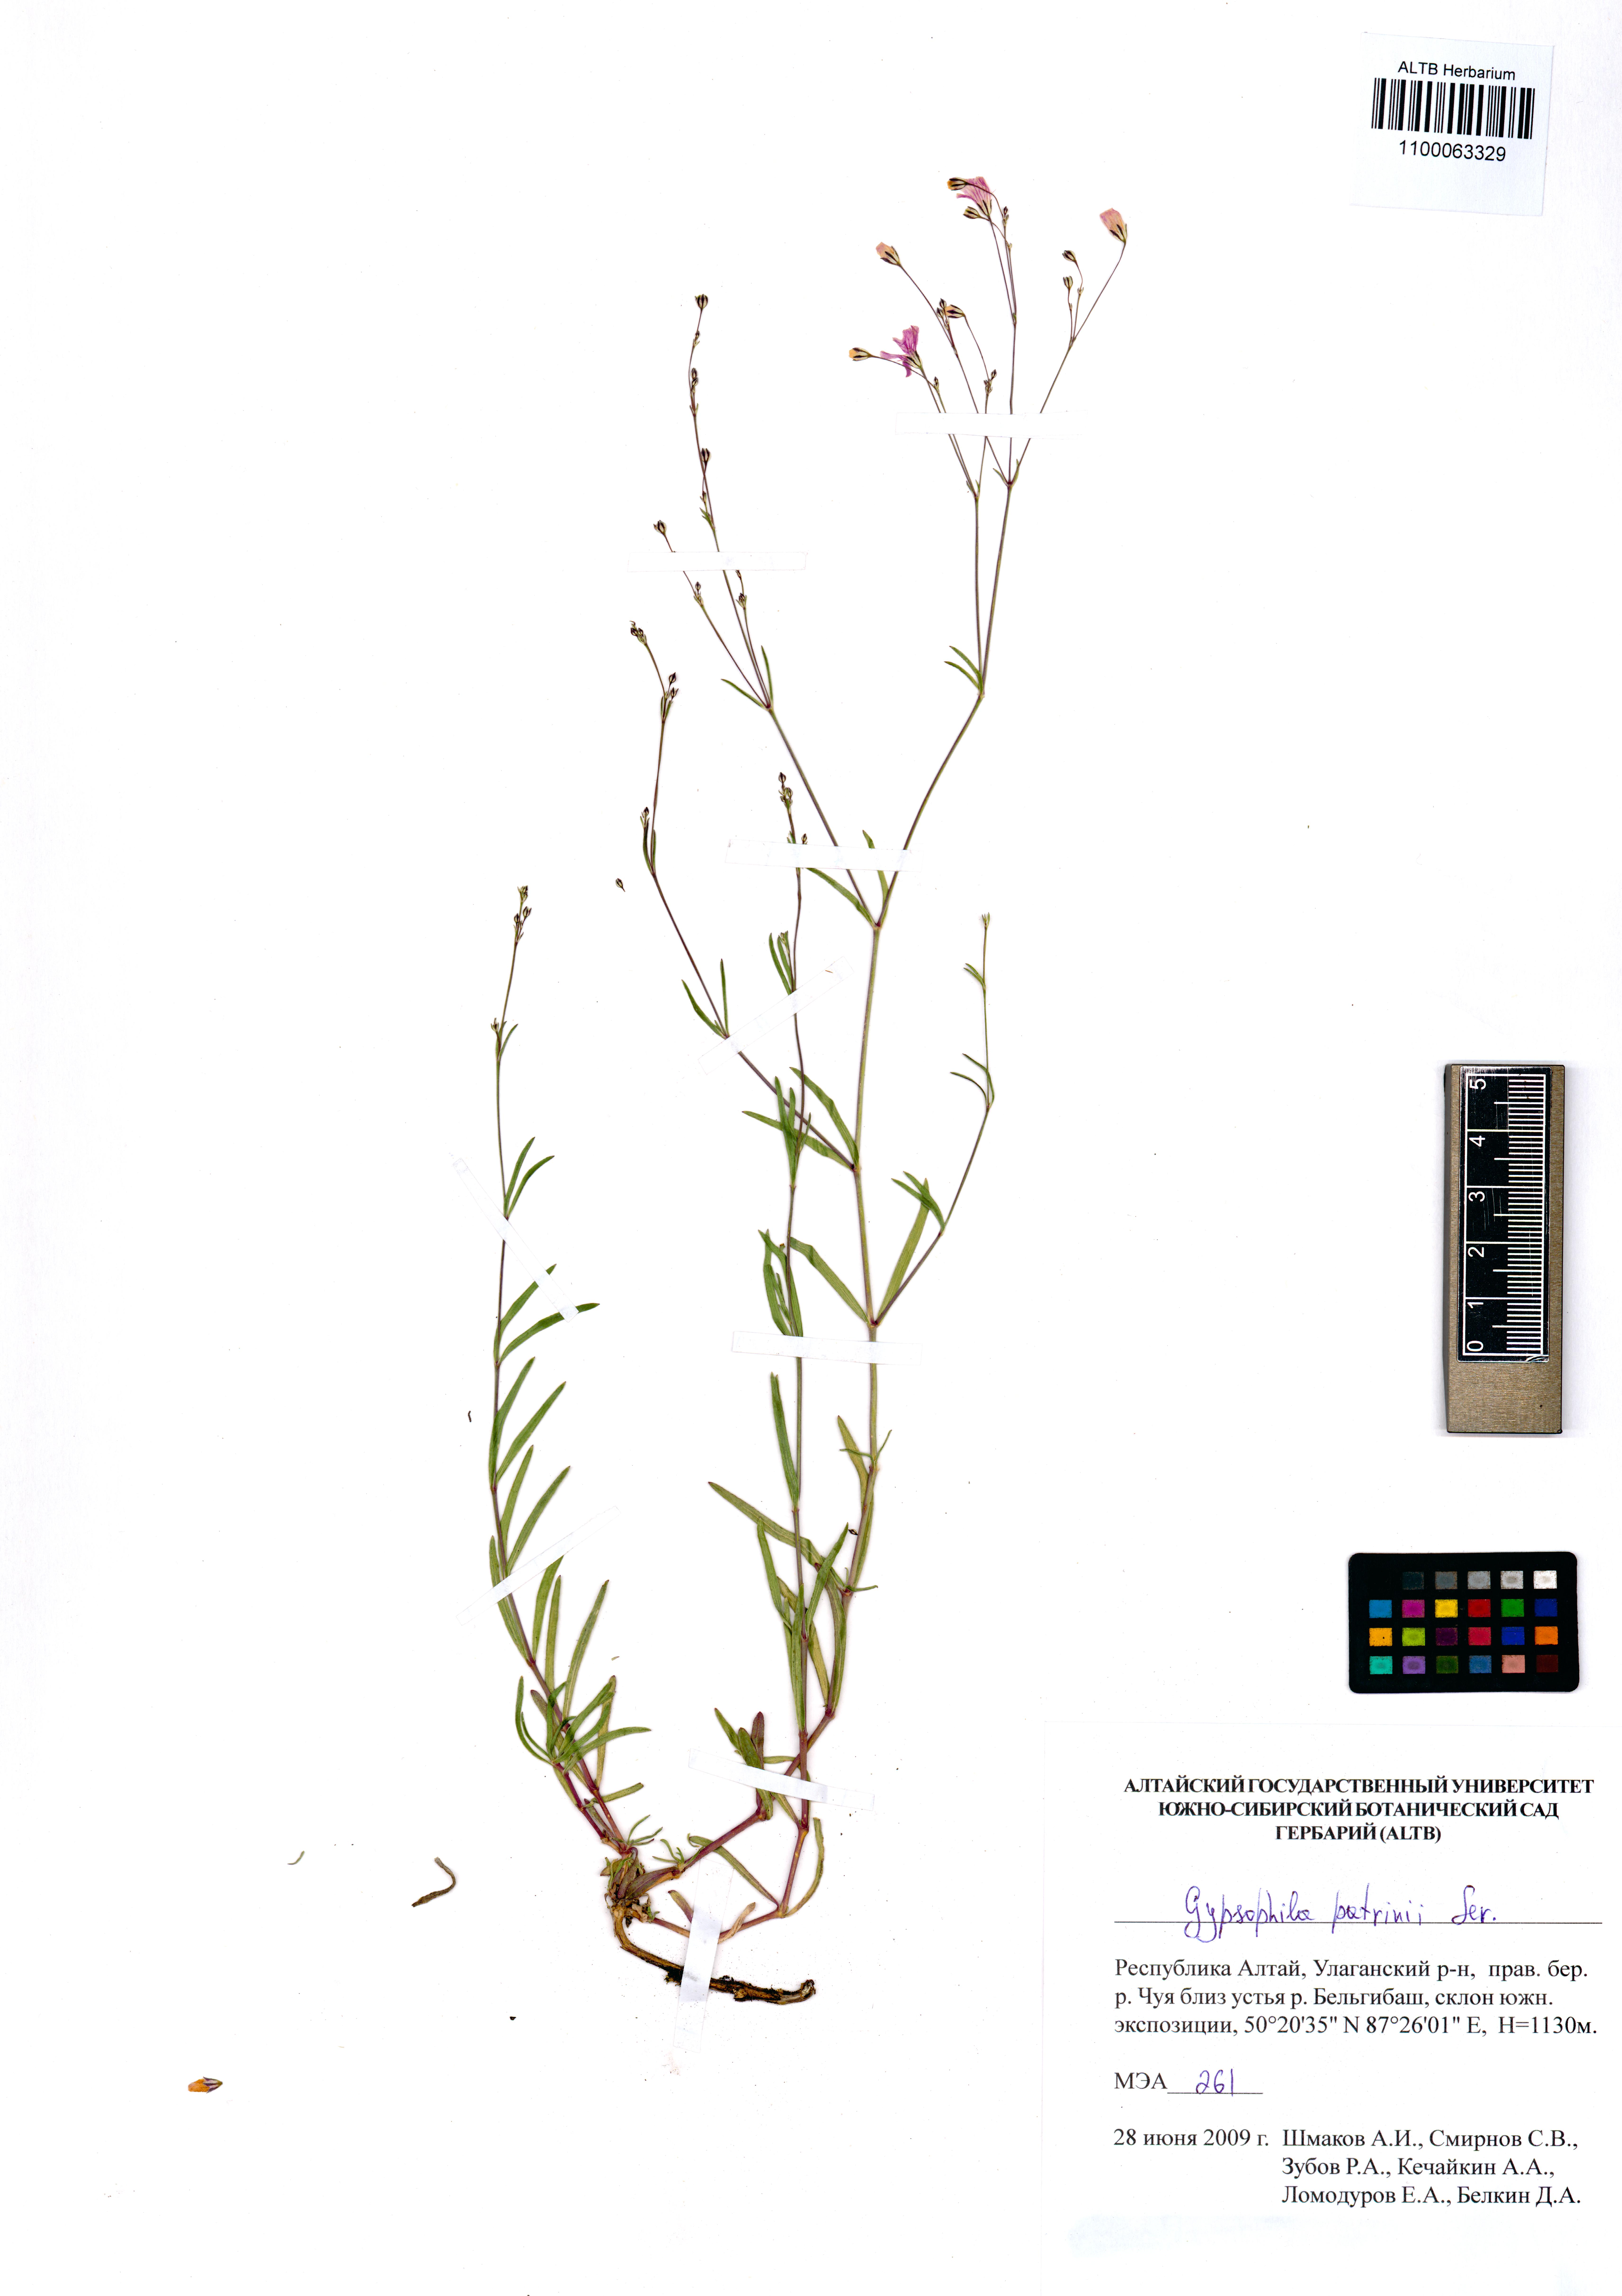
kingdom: Plantae
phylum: Tracheophyta
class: Magnoliopsida
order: Caryophyllales
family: Caryophyllaceae
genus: Gypsophila
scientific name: Gypsophila patrinii
